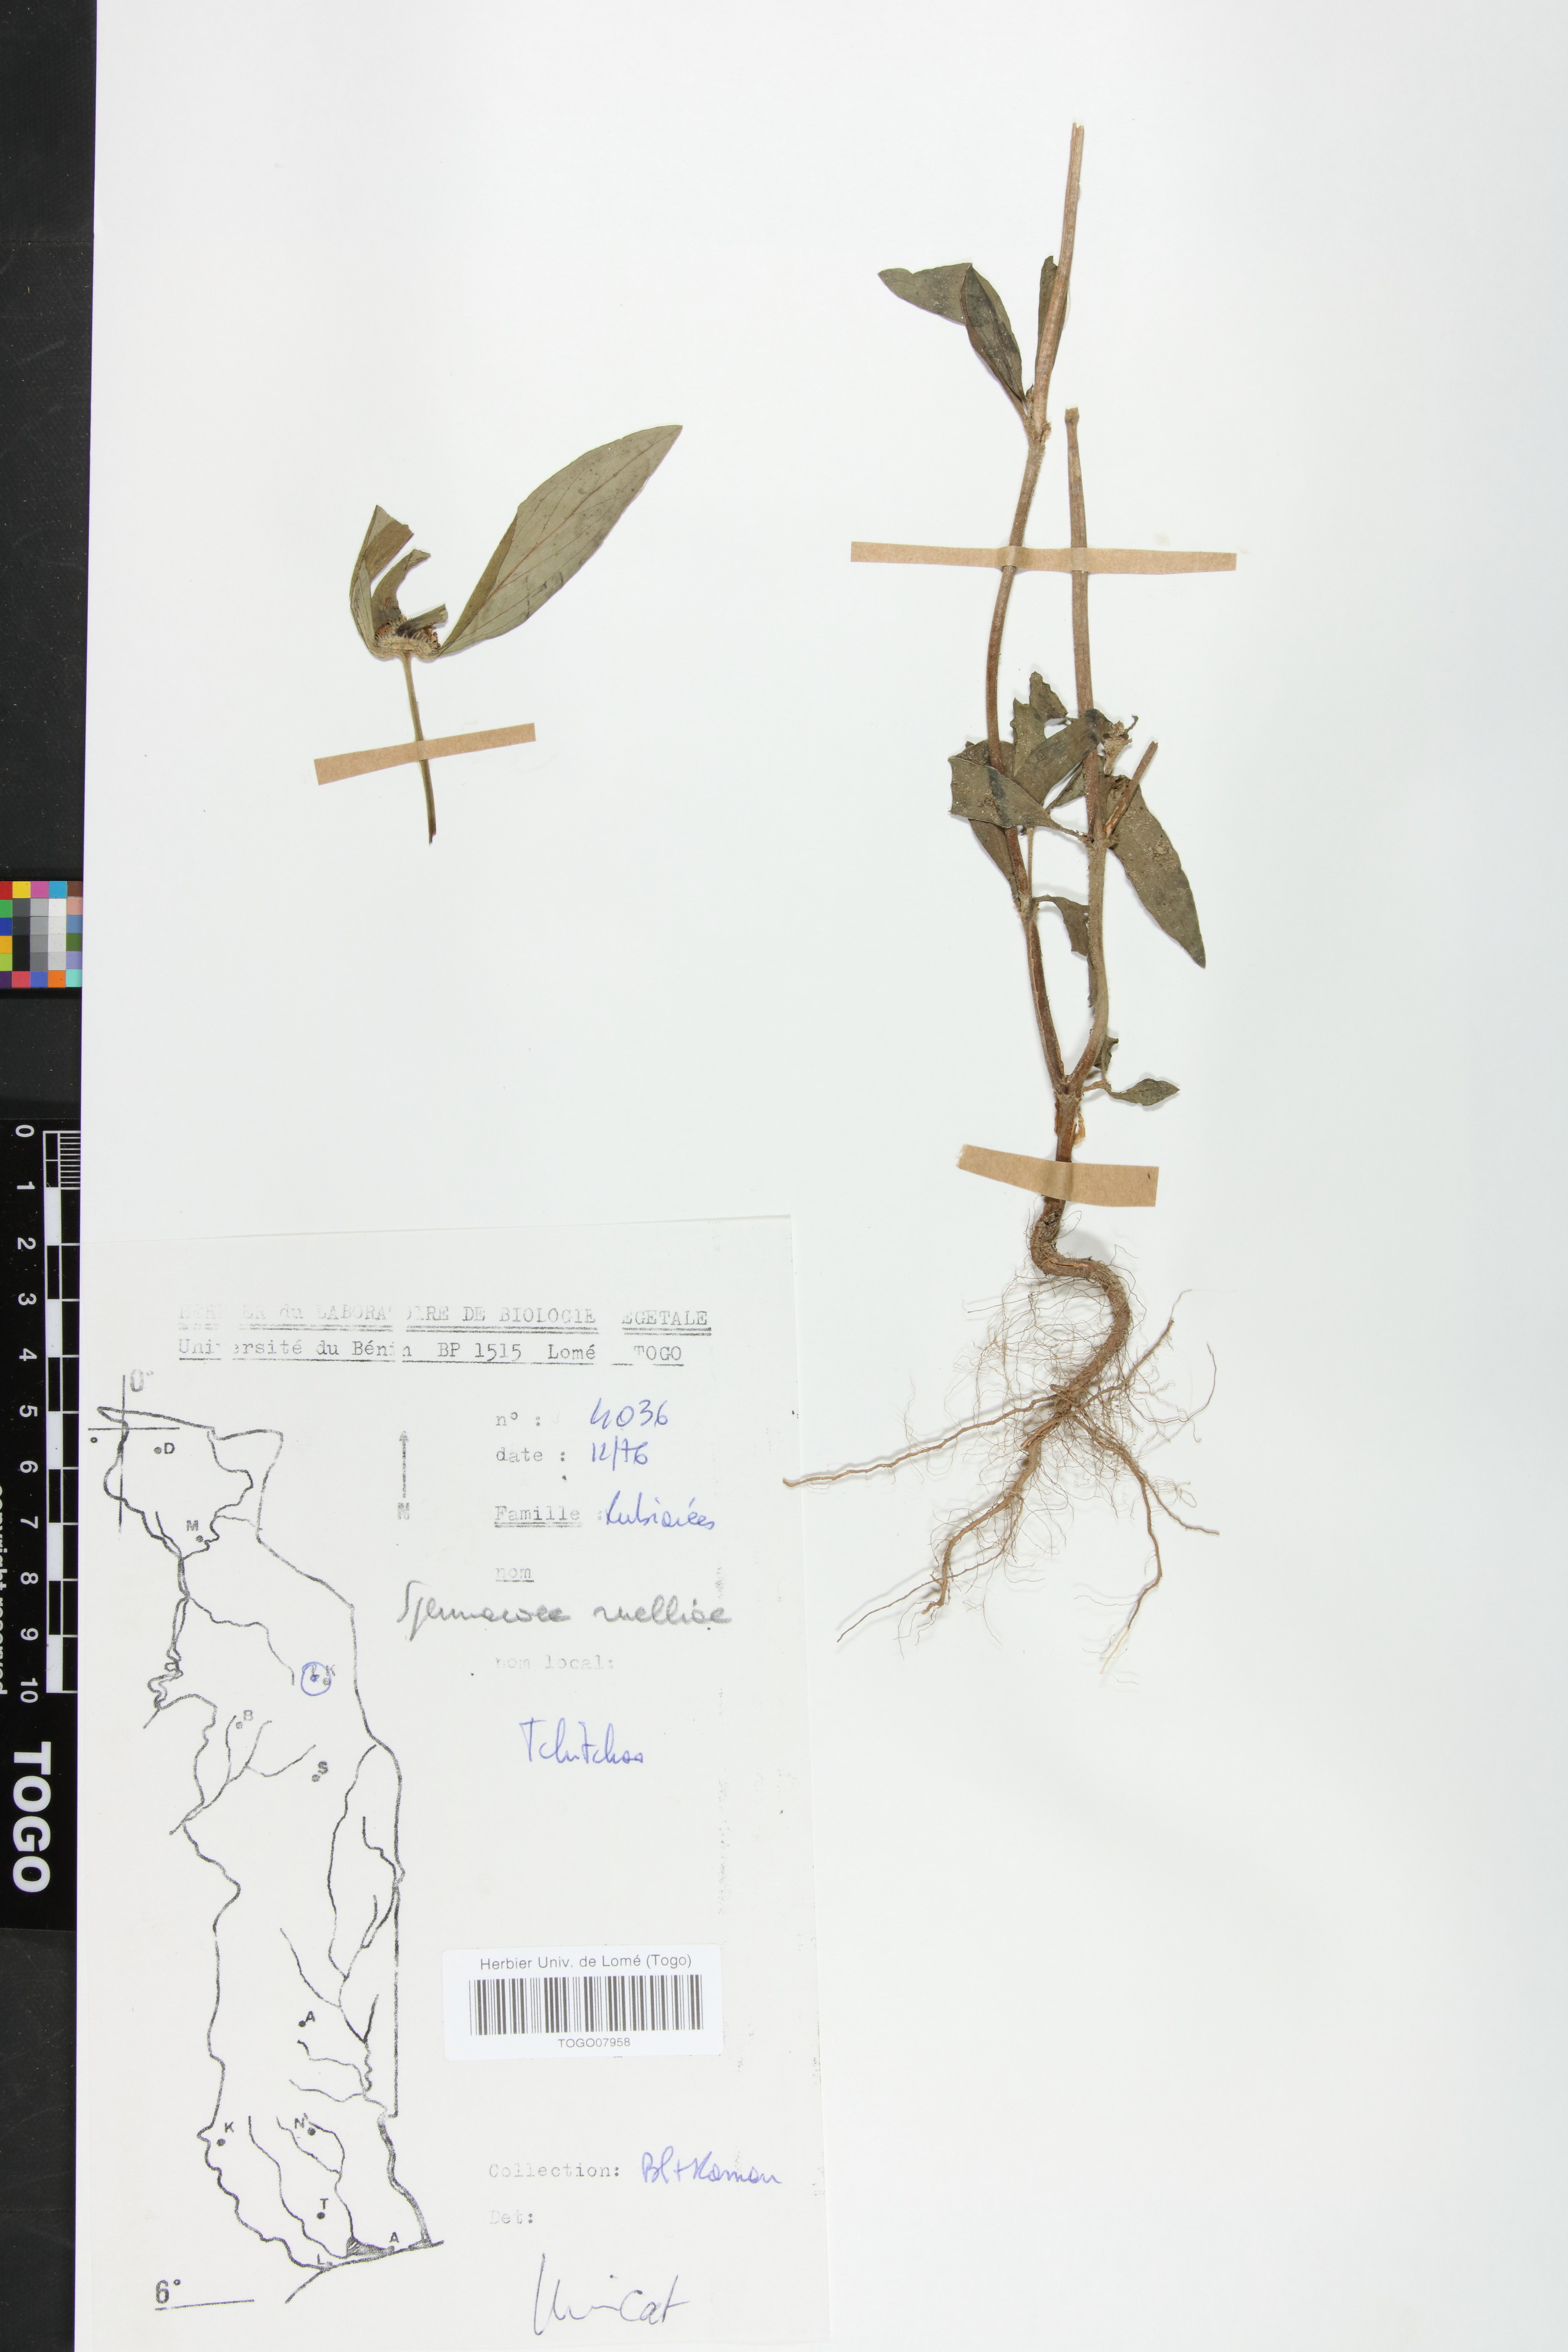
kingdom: Plantae
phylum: Tracheophyta
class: Magnoliopsida
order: Gentianales
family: Rubiaceae
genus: Spermacoce
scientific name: Spermacoce ruelliae
